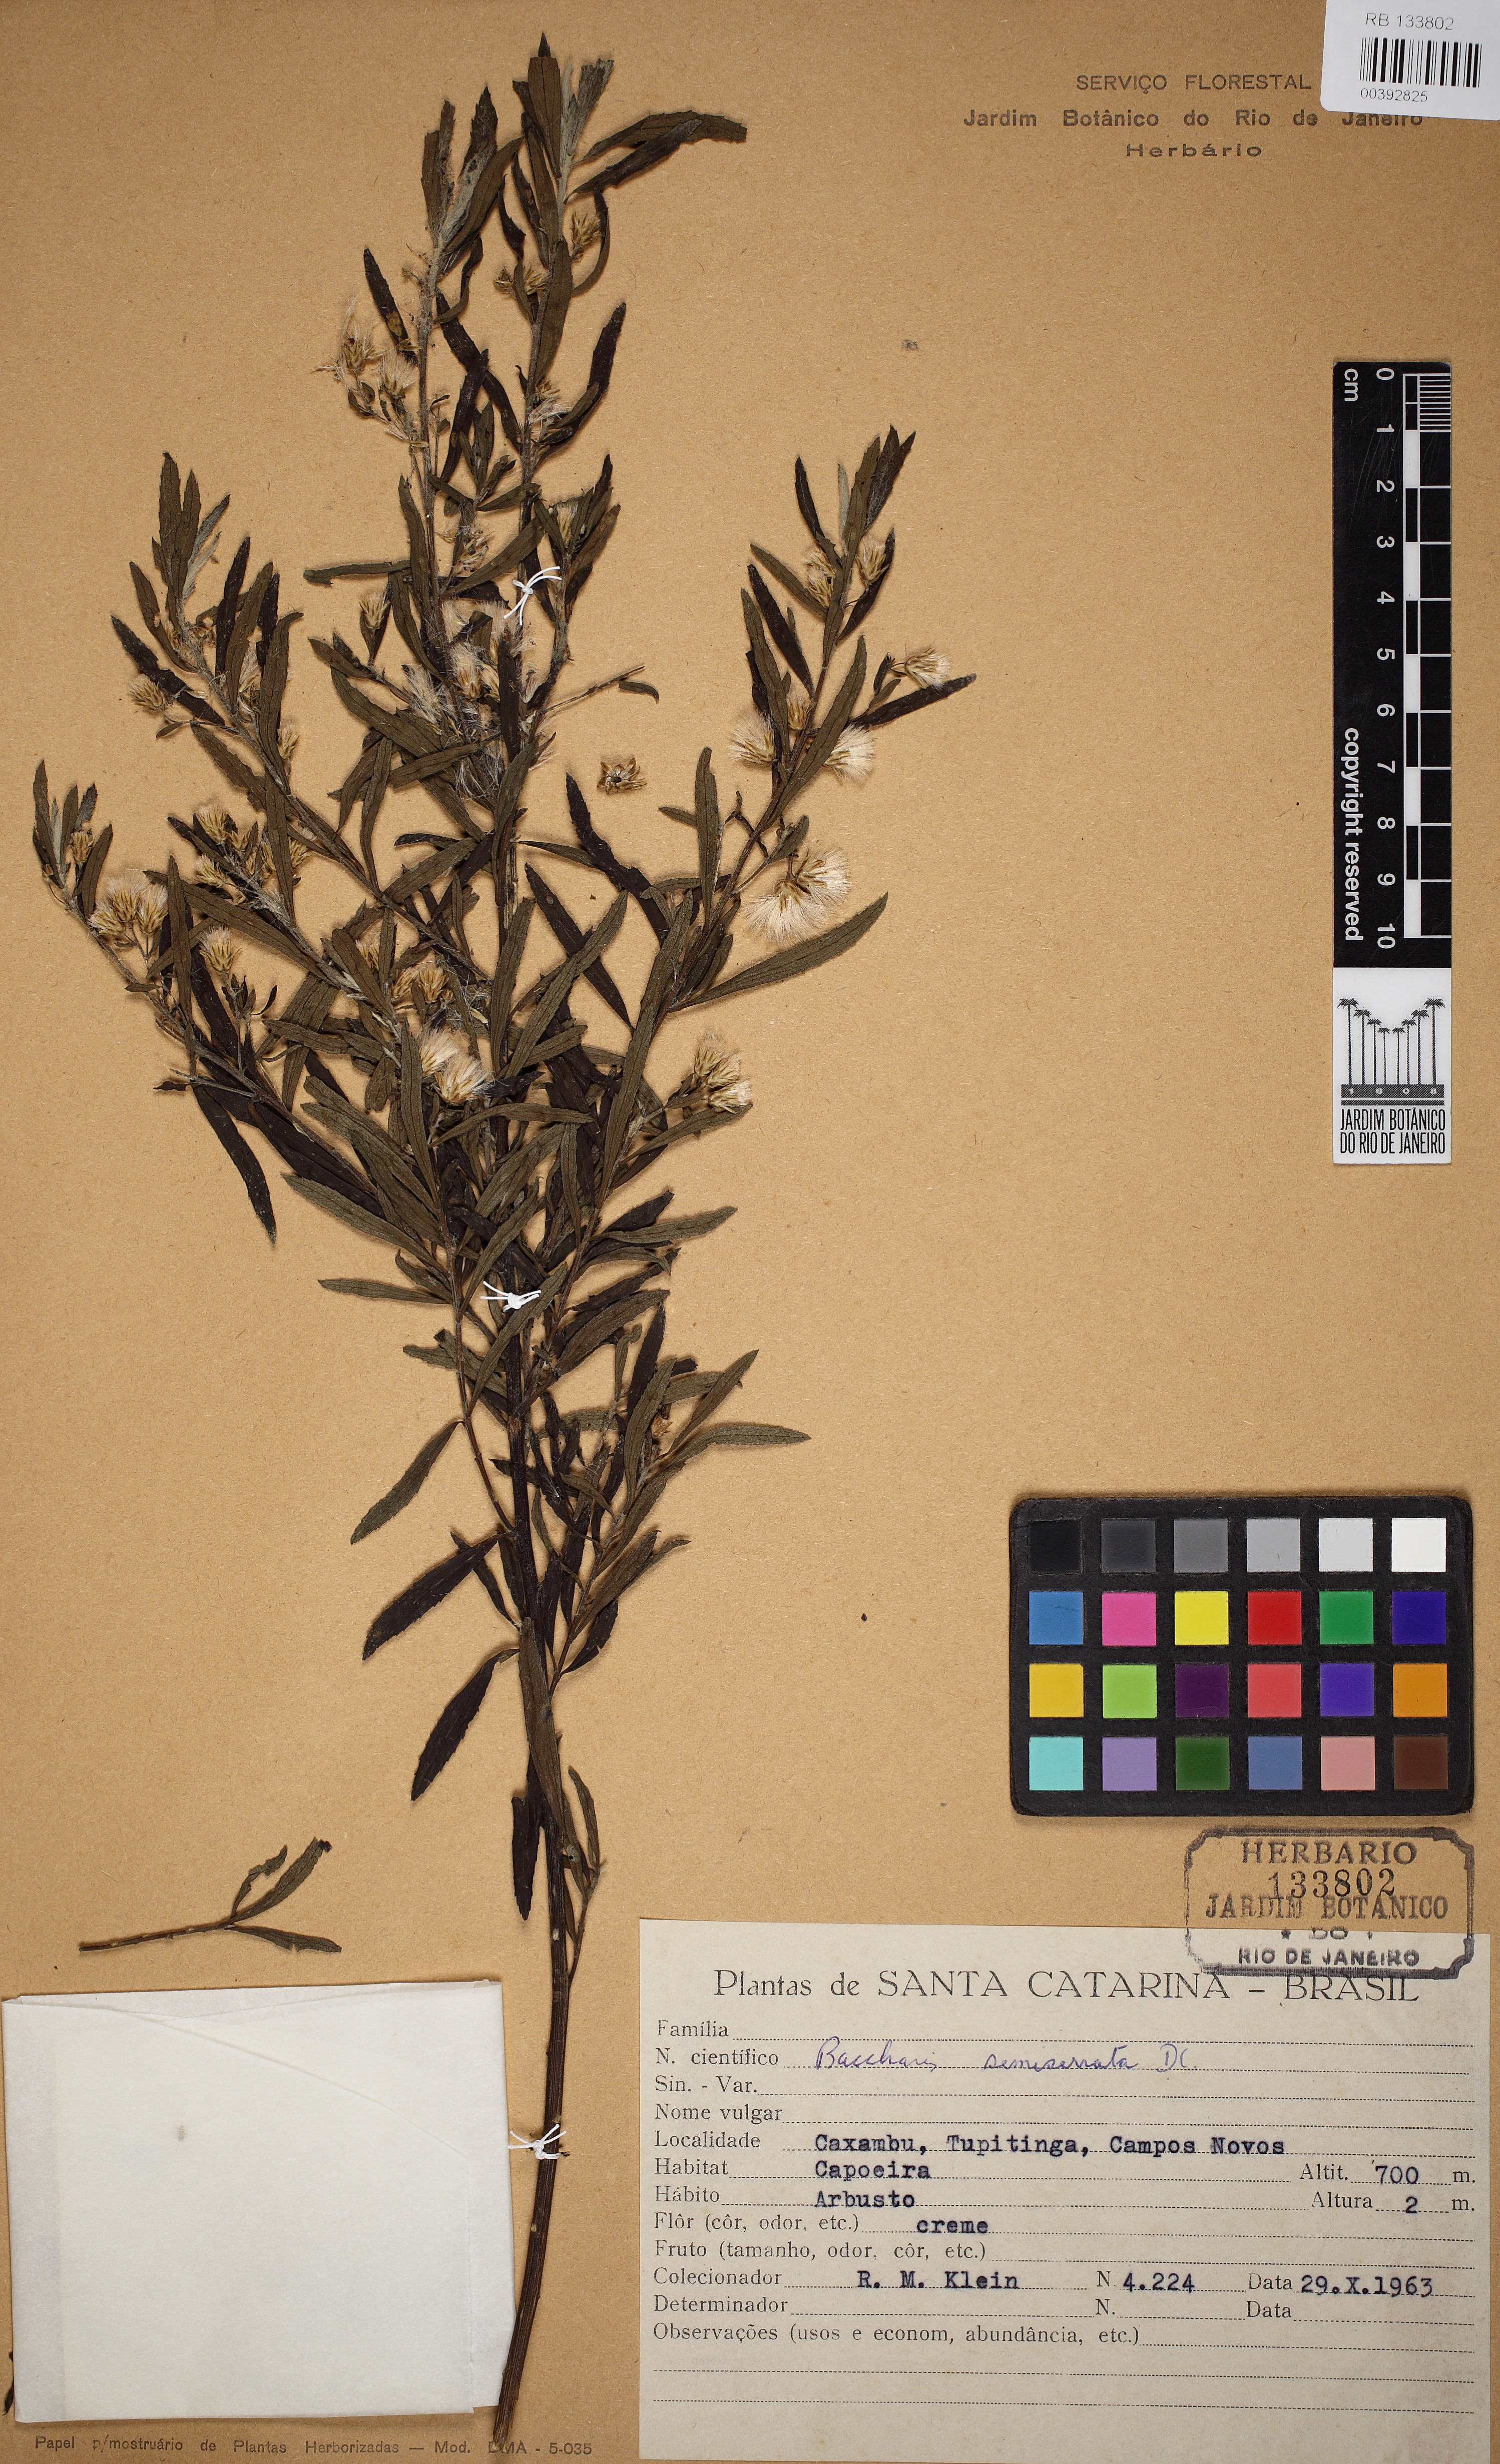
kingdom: Plantae
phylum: Tracheophyta
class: Magnoliopsida
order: Asterales
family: Asteraceae
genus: Baccharis
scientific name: Baccharis gnidiifolia
